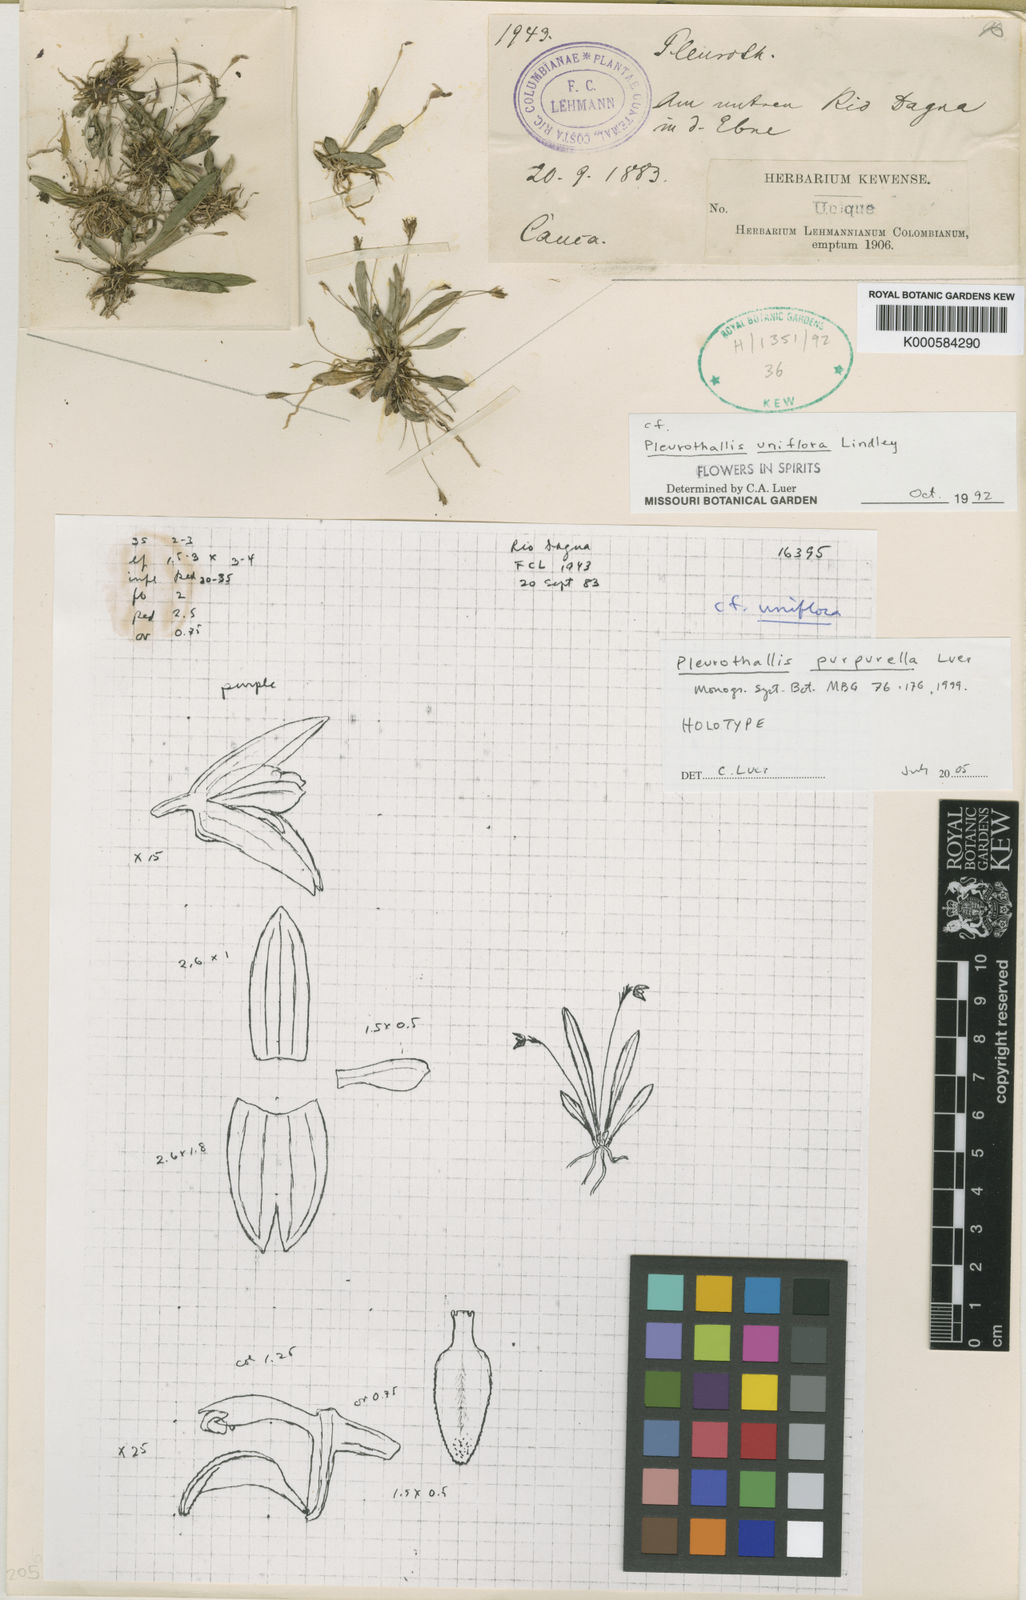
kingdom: Plantae
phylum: Tracheophyta
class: Liliopsida
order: Asparagales
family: Orchidaceae
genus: Specklinia
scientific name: Specklinia purpurella
